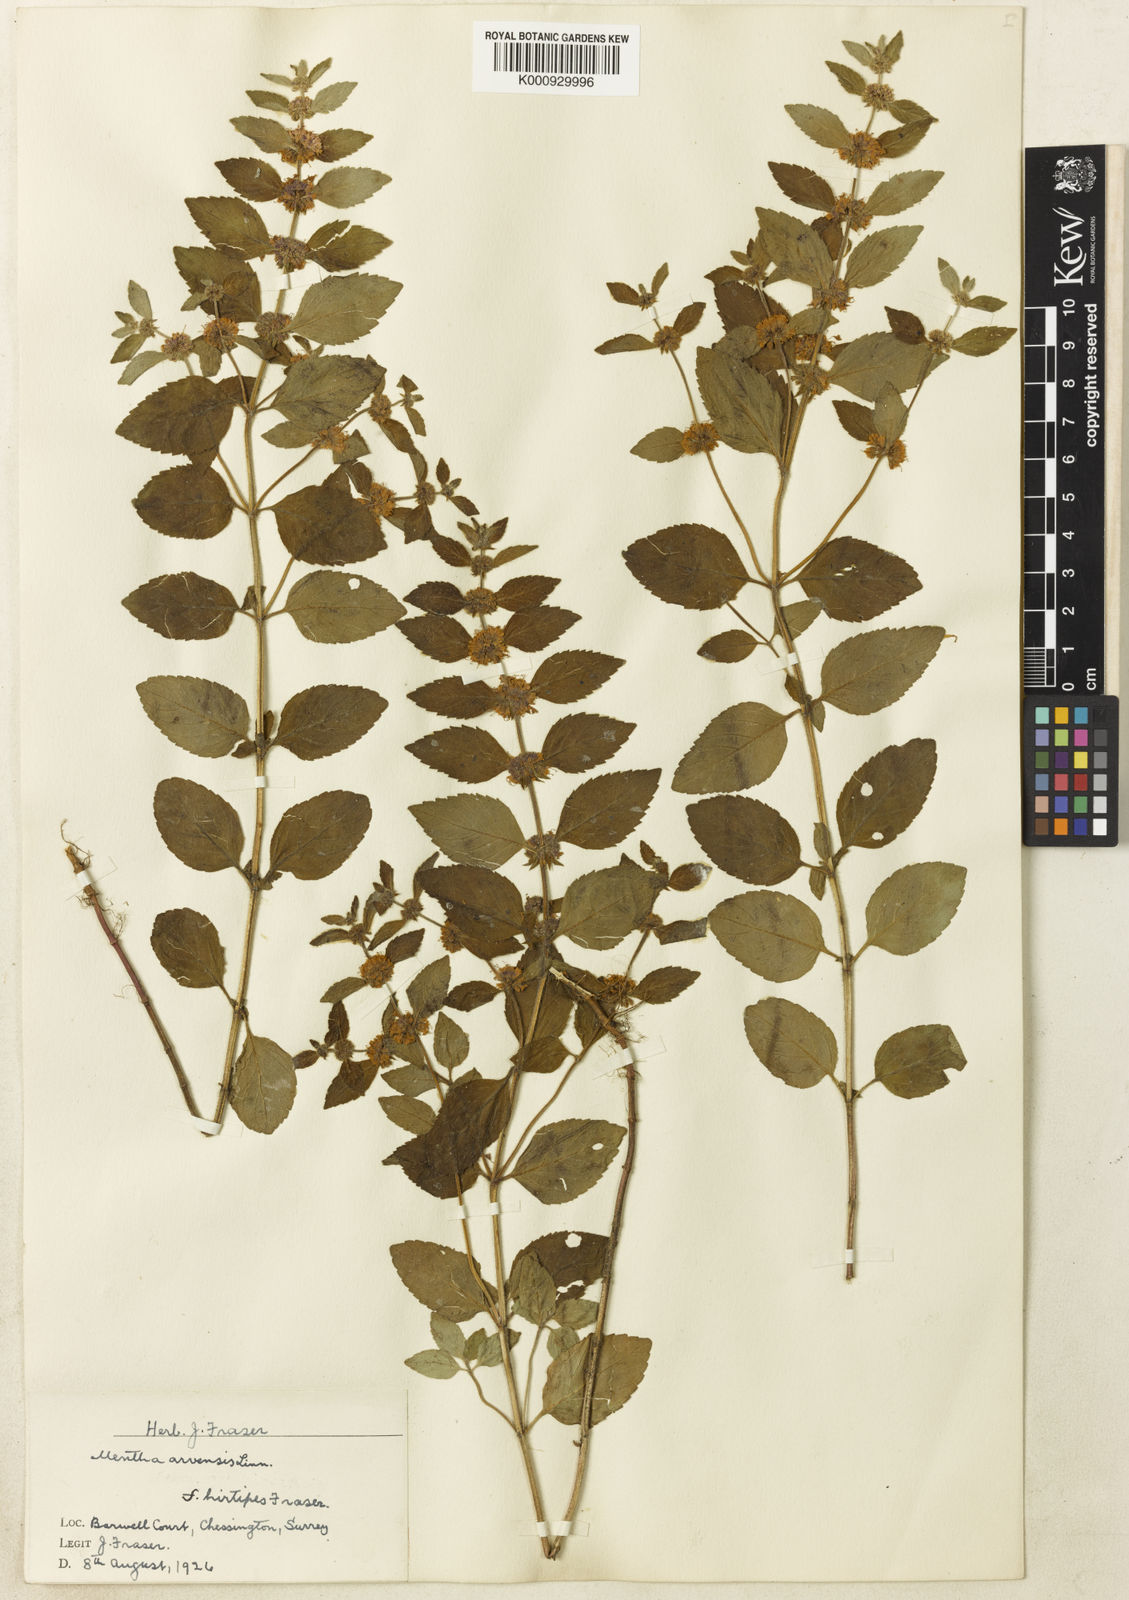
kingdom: Plantae
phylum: Tracheophyta
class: Magnoliopsida
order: Lamiales
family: Lamiaceae
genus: Mentha
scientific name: Mentha arvensis
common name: Corn mint
